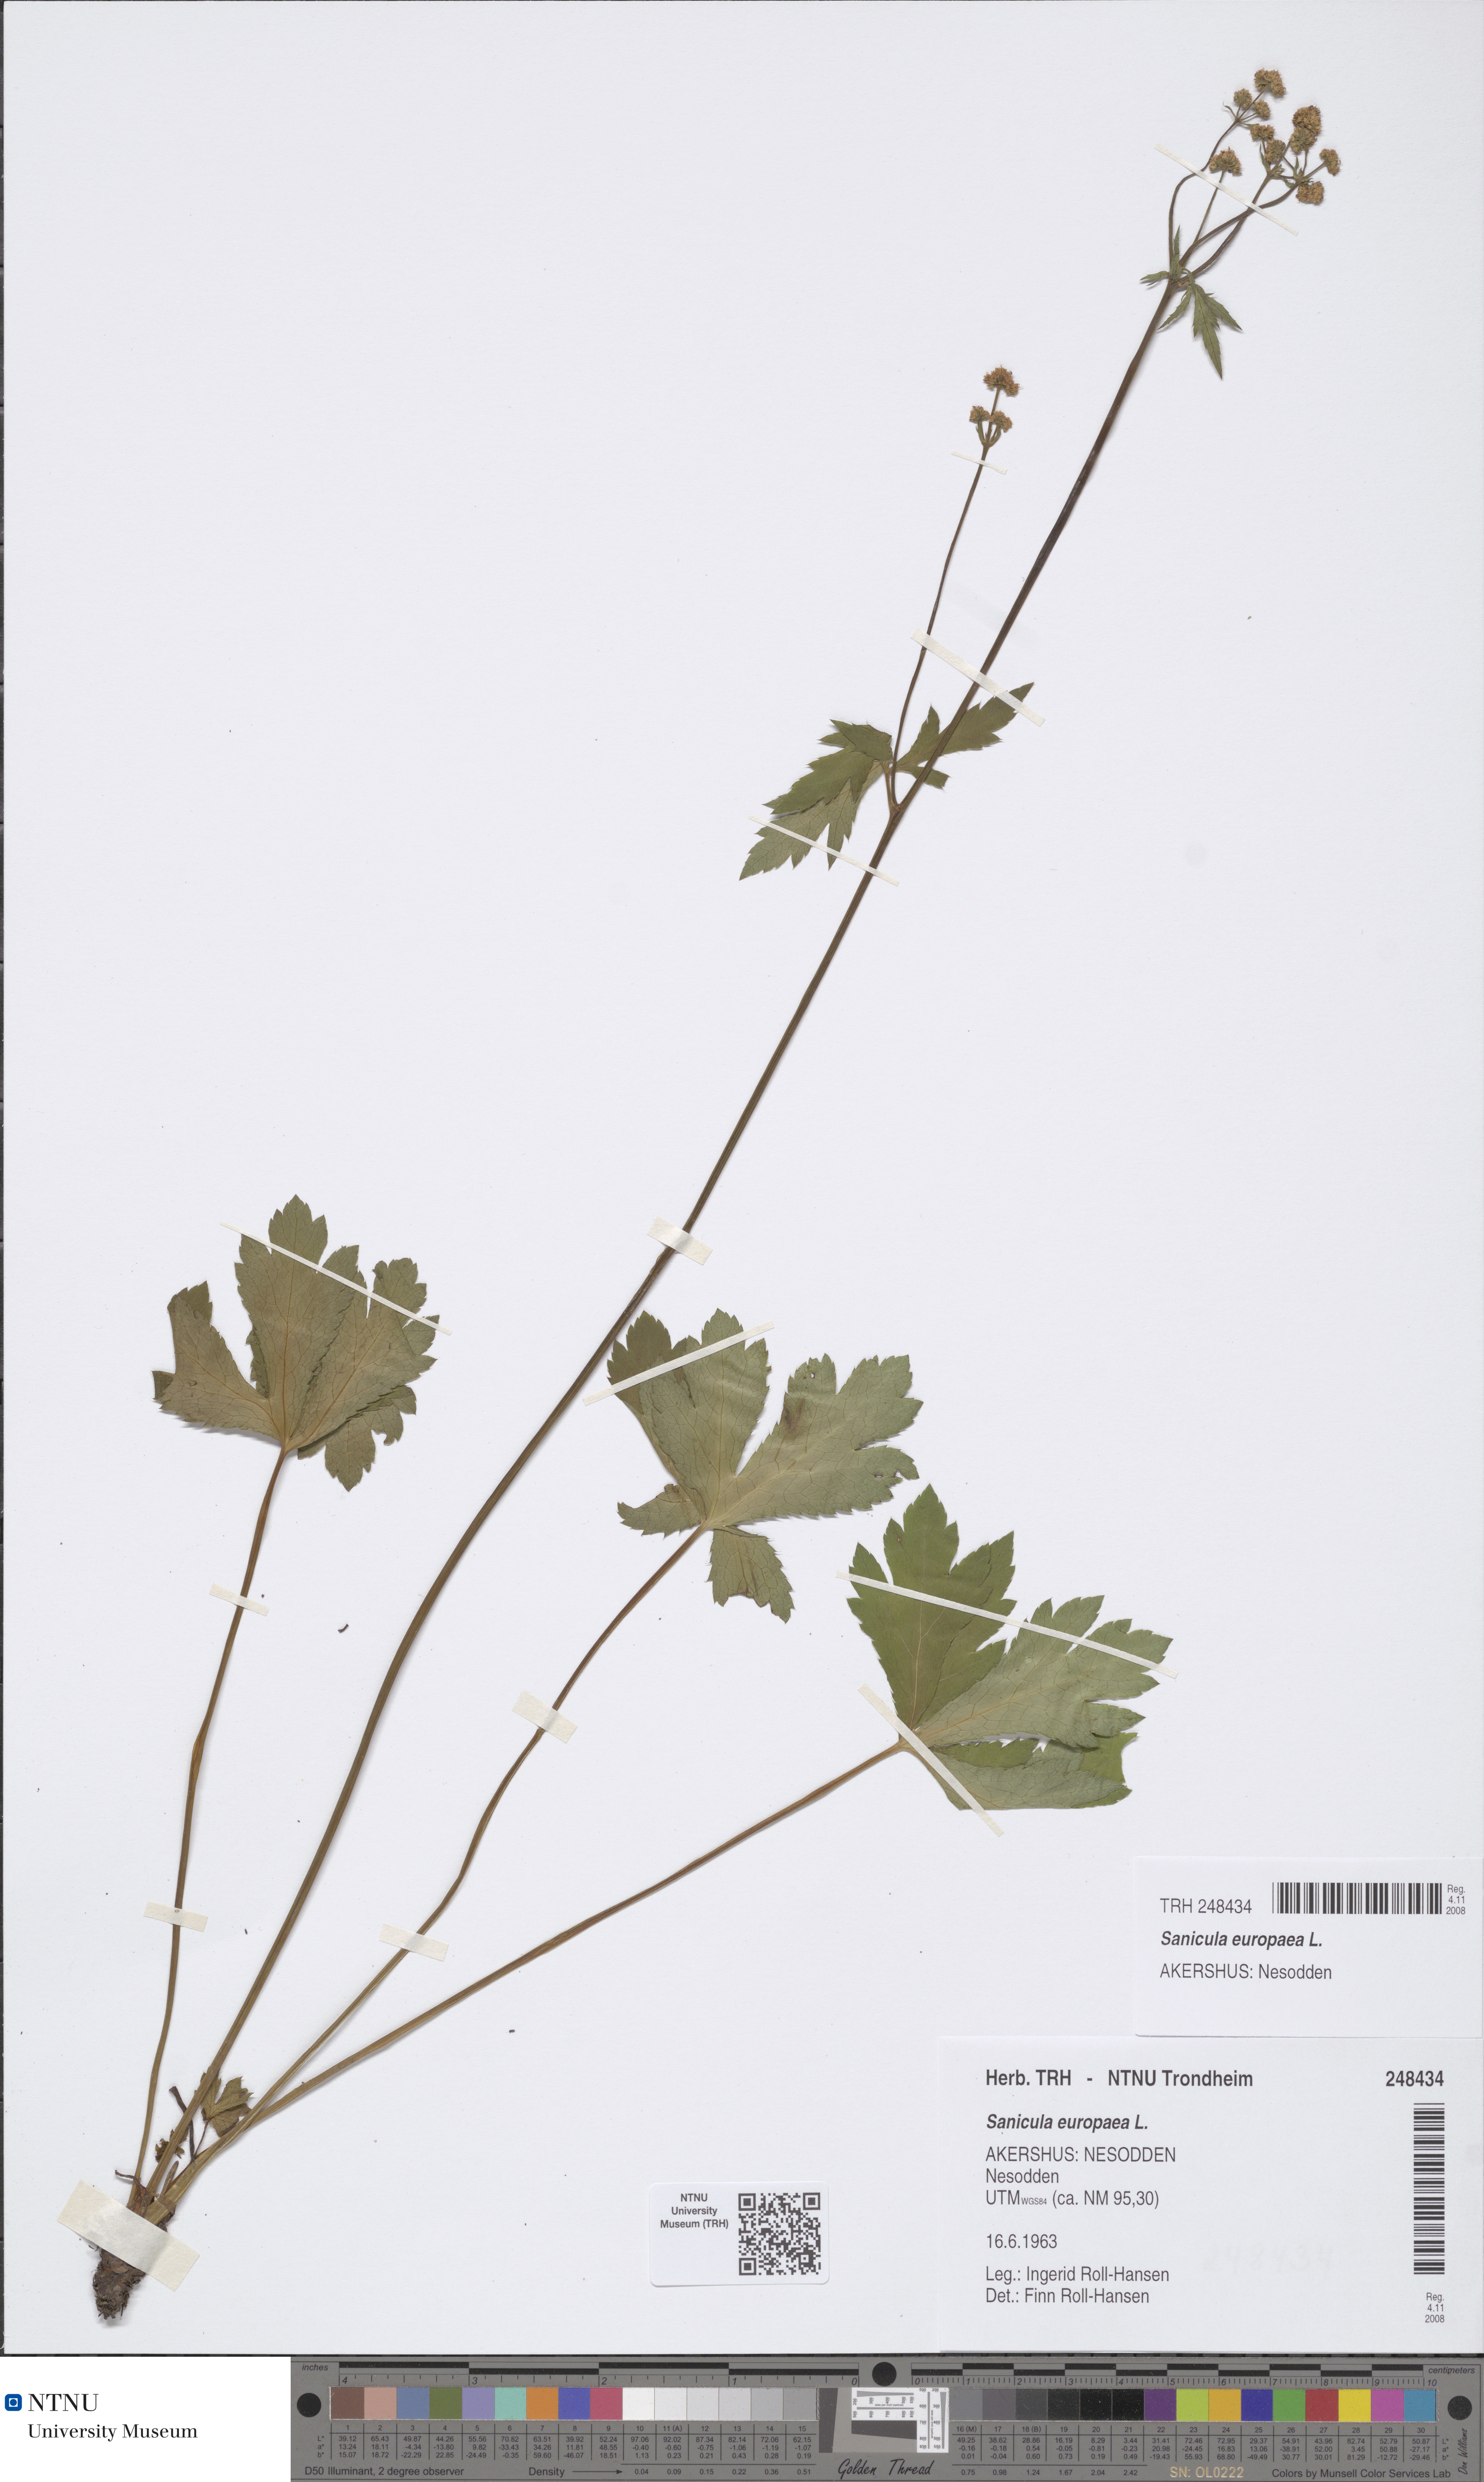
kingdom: Plantae
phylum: Tracheophyta
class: Magnoliopsida
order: Apiales
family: Apiaceae
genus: Sanicula
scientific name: Sanicula europaea
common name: Sanicle
